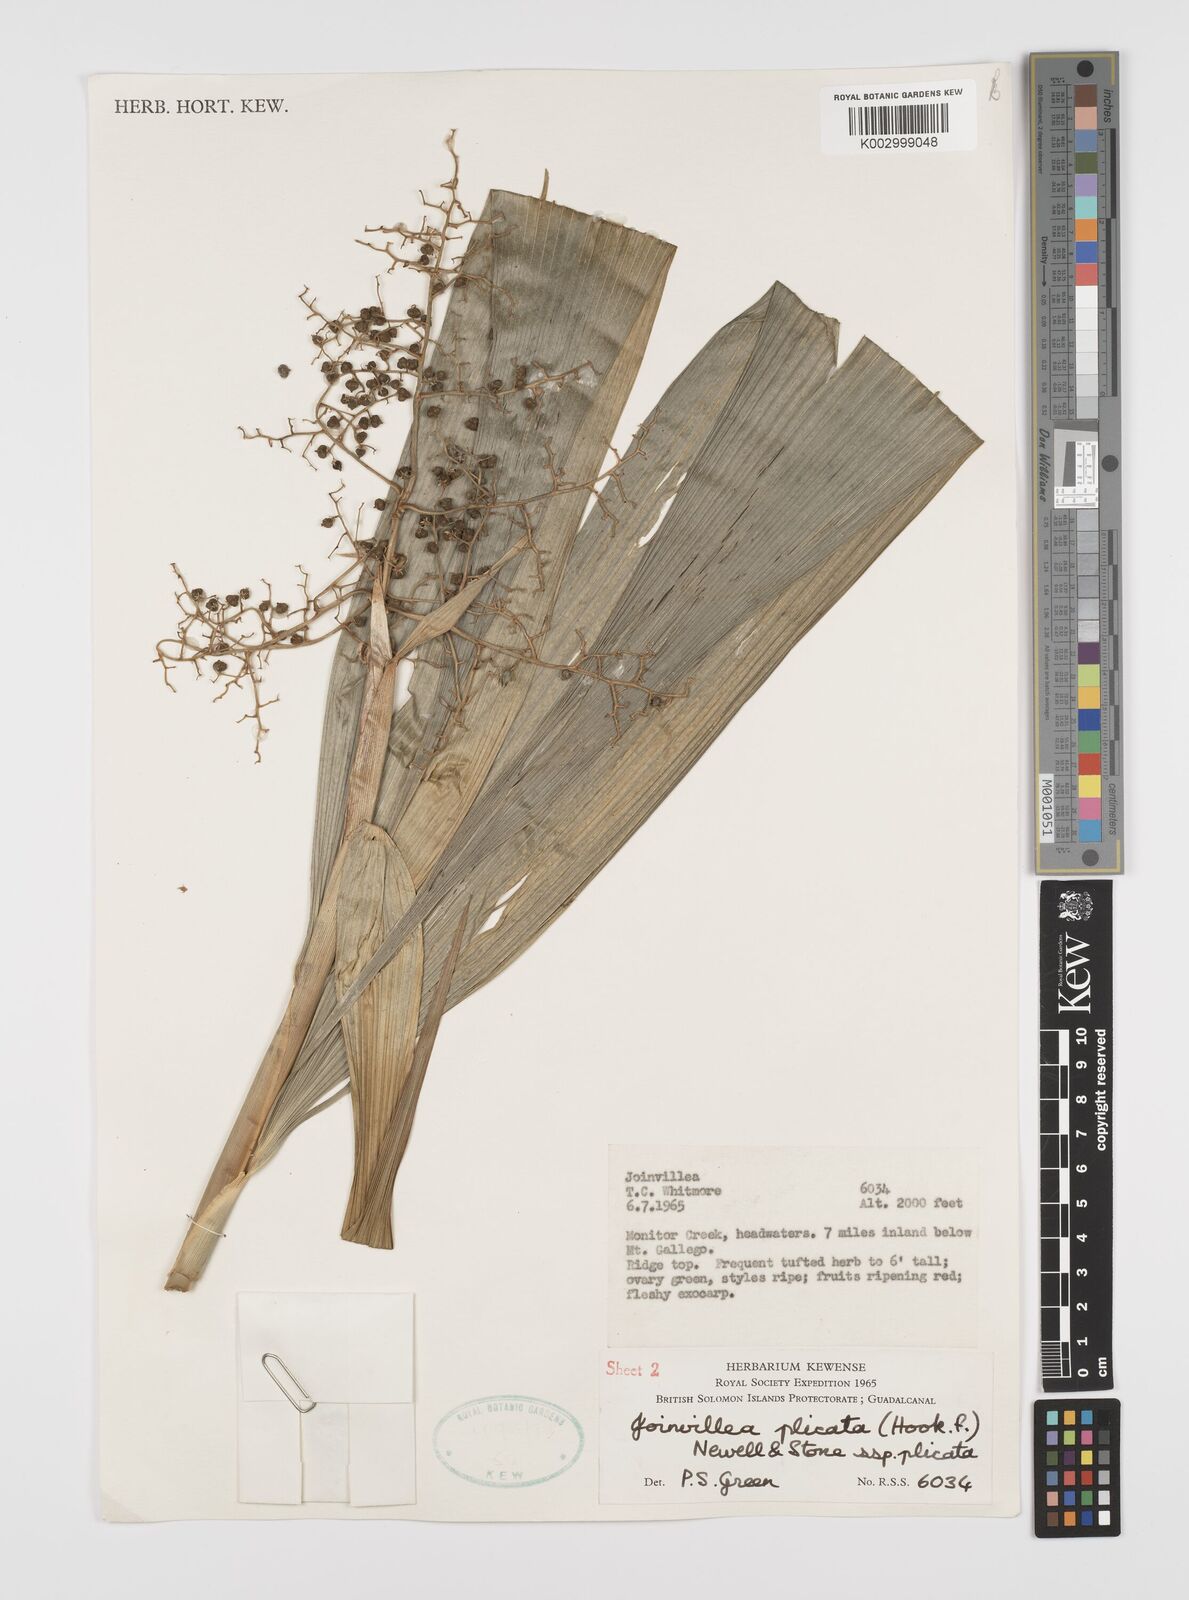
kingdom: Plantae
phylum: Tracheophyta
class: Liliopsida
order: Poales
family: Joinvilleaceae
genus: Joinvillea
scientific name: Joinvillea plicata
